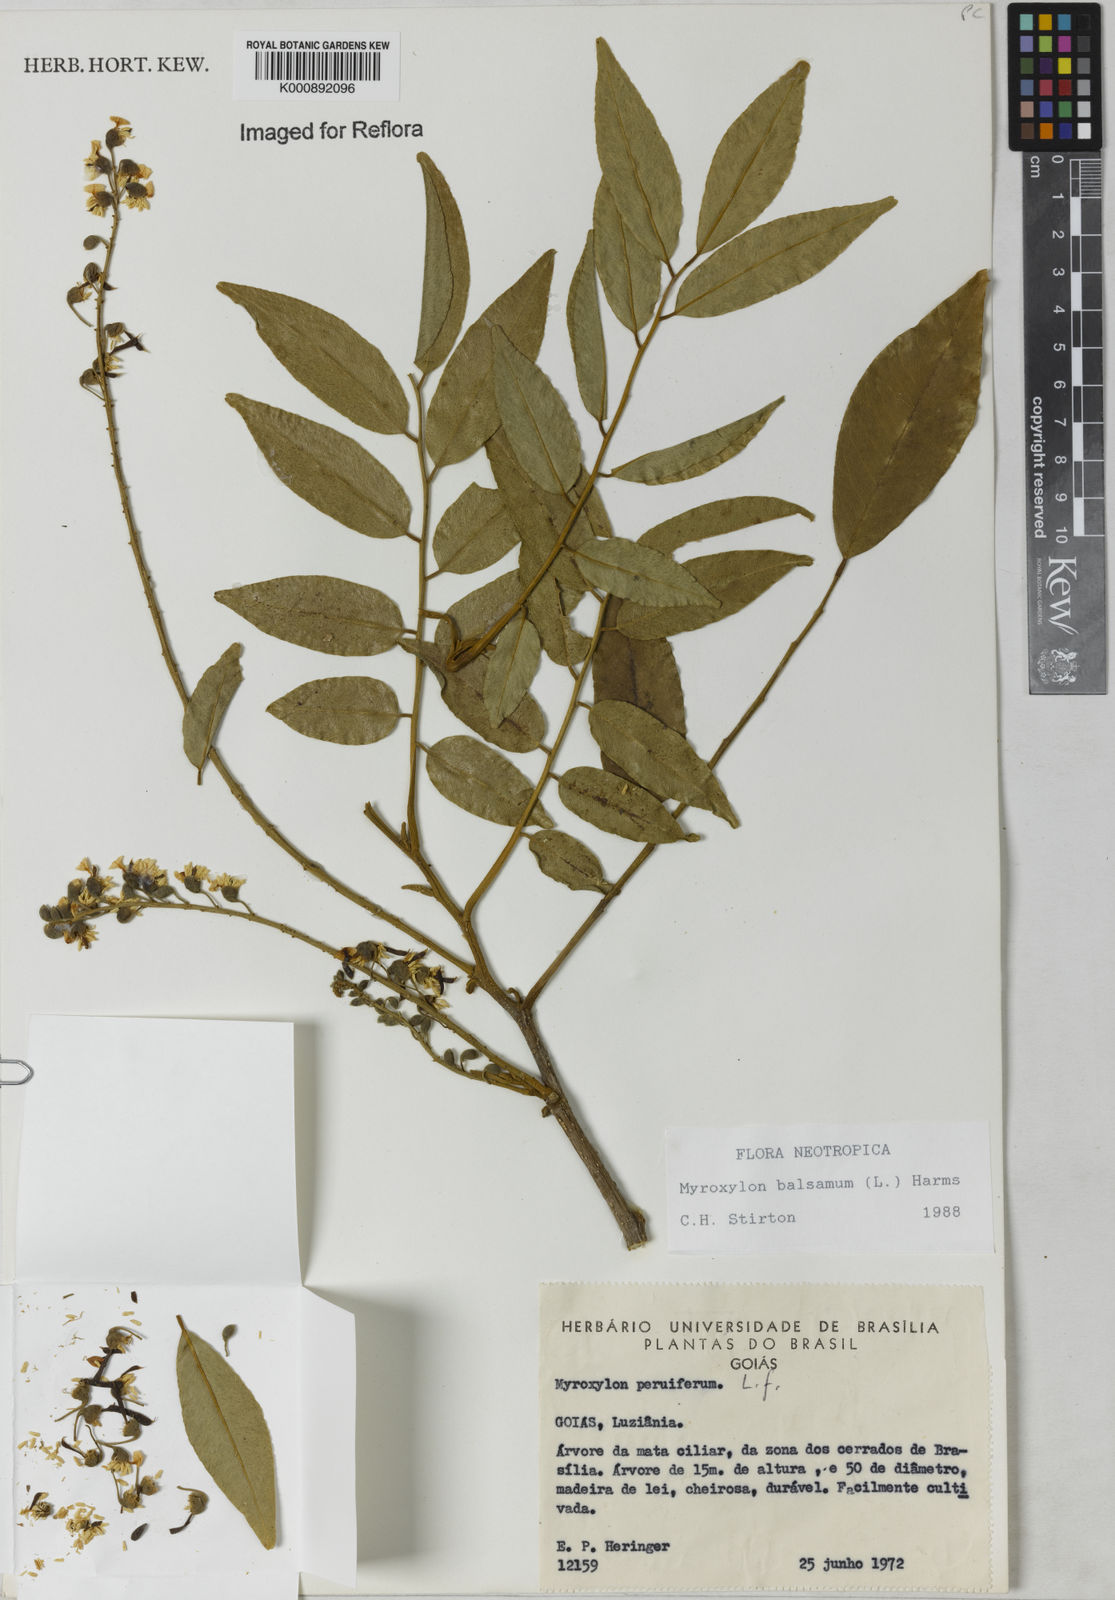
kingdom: Plantae
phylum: Tracheophyta
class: Magnoliopsida
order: Fabales
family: Fabaceae
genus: Myroxylon
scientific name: Myroxylon balsamum
